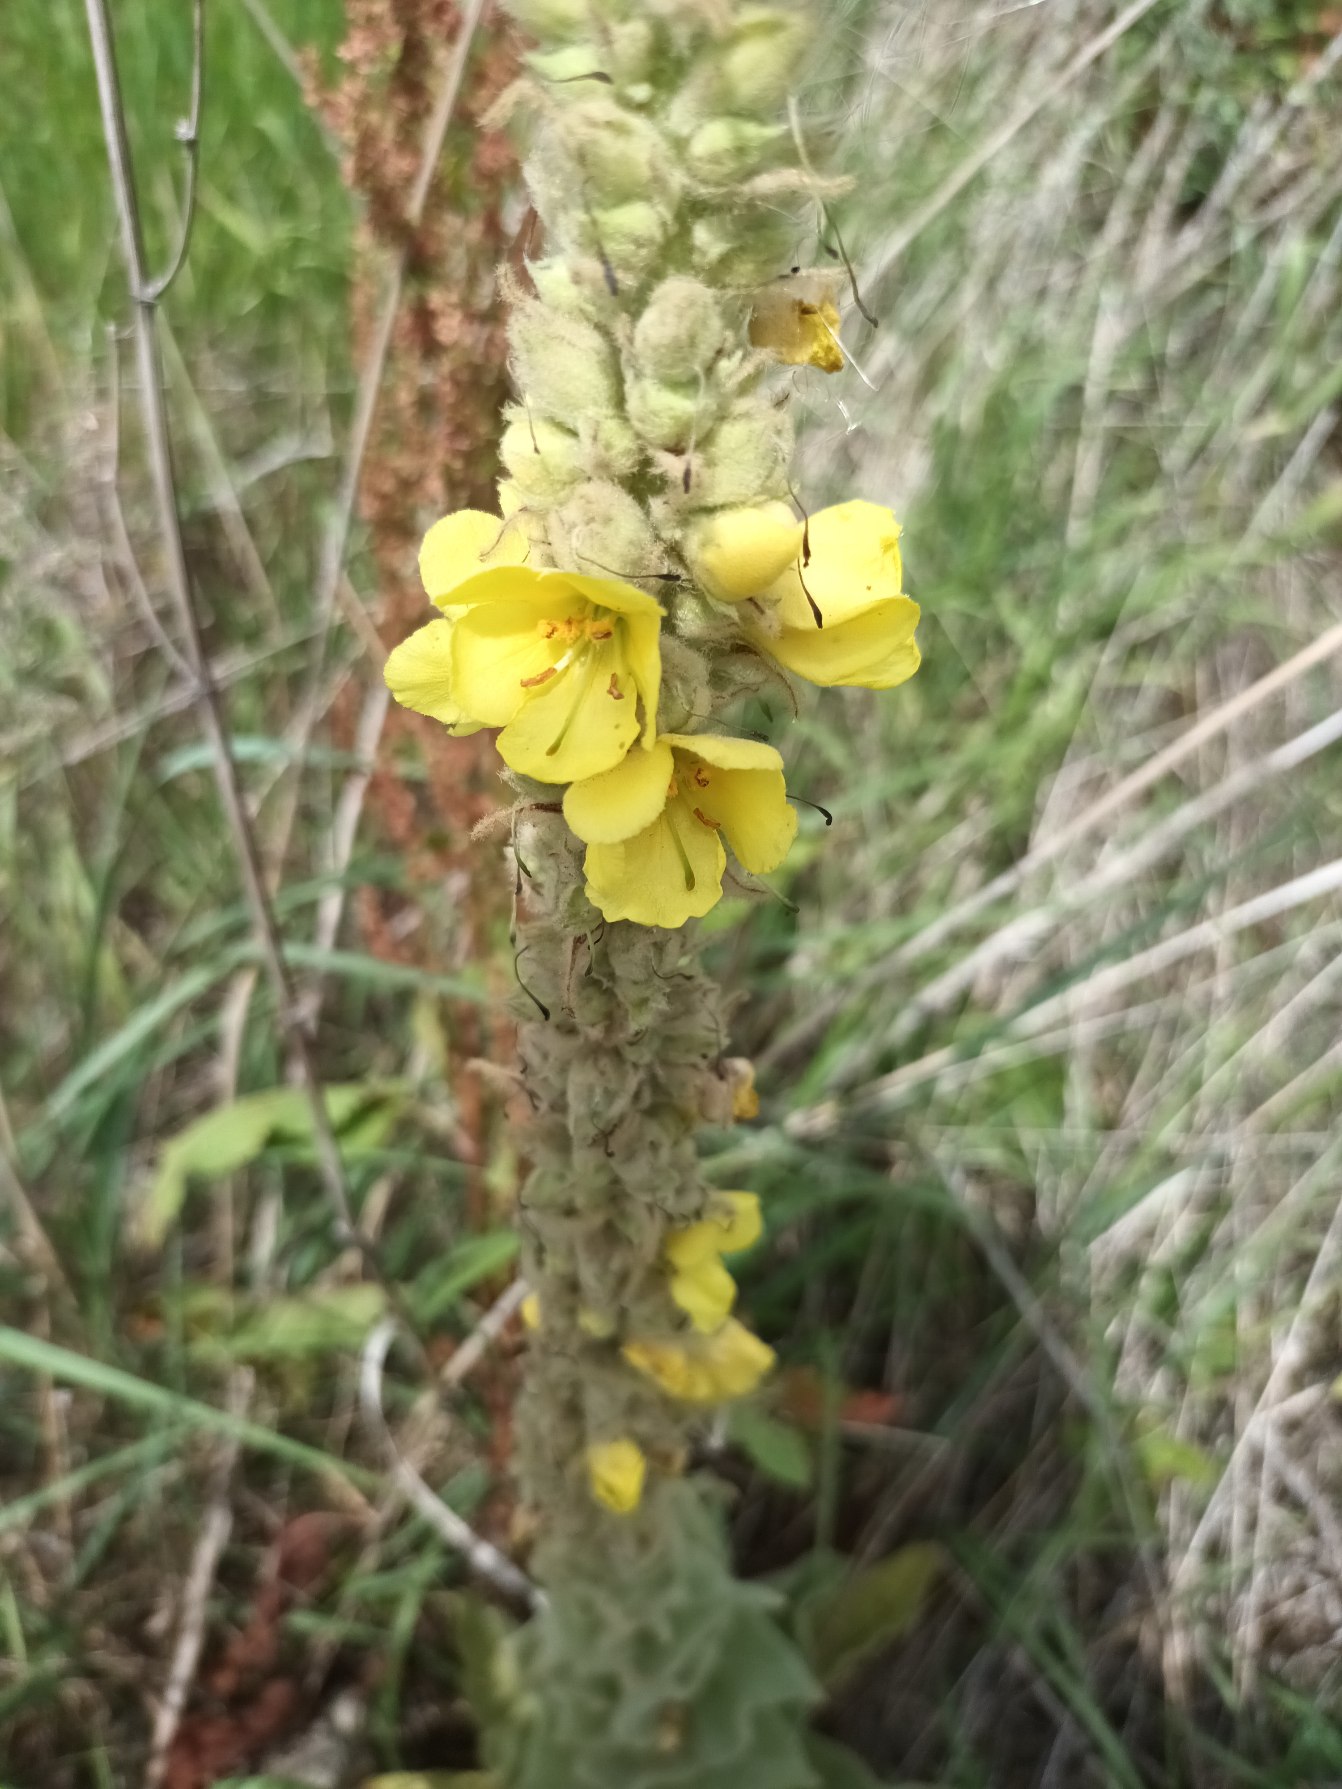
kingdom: Plantae
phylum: Tracheophyta
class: Magnoliopsida
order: Lamiales
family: Scrophulariaceae
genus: Verbascum
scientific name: Verbascum densiflorum
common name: Uldbladet kongelys
